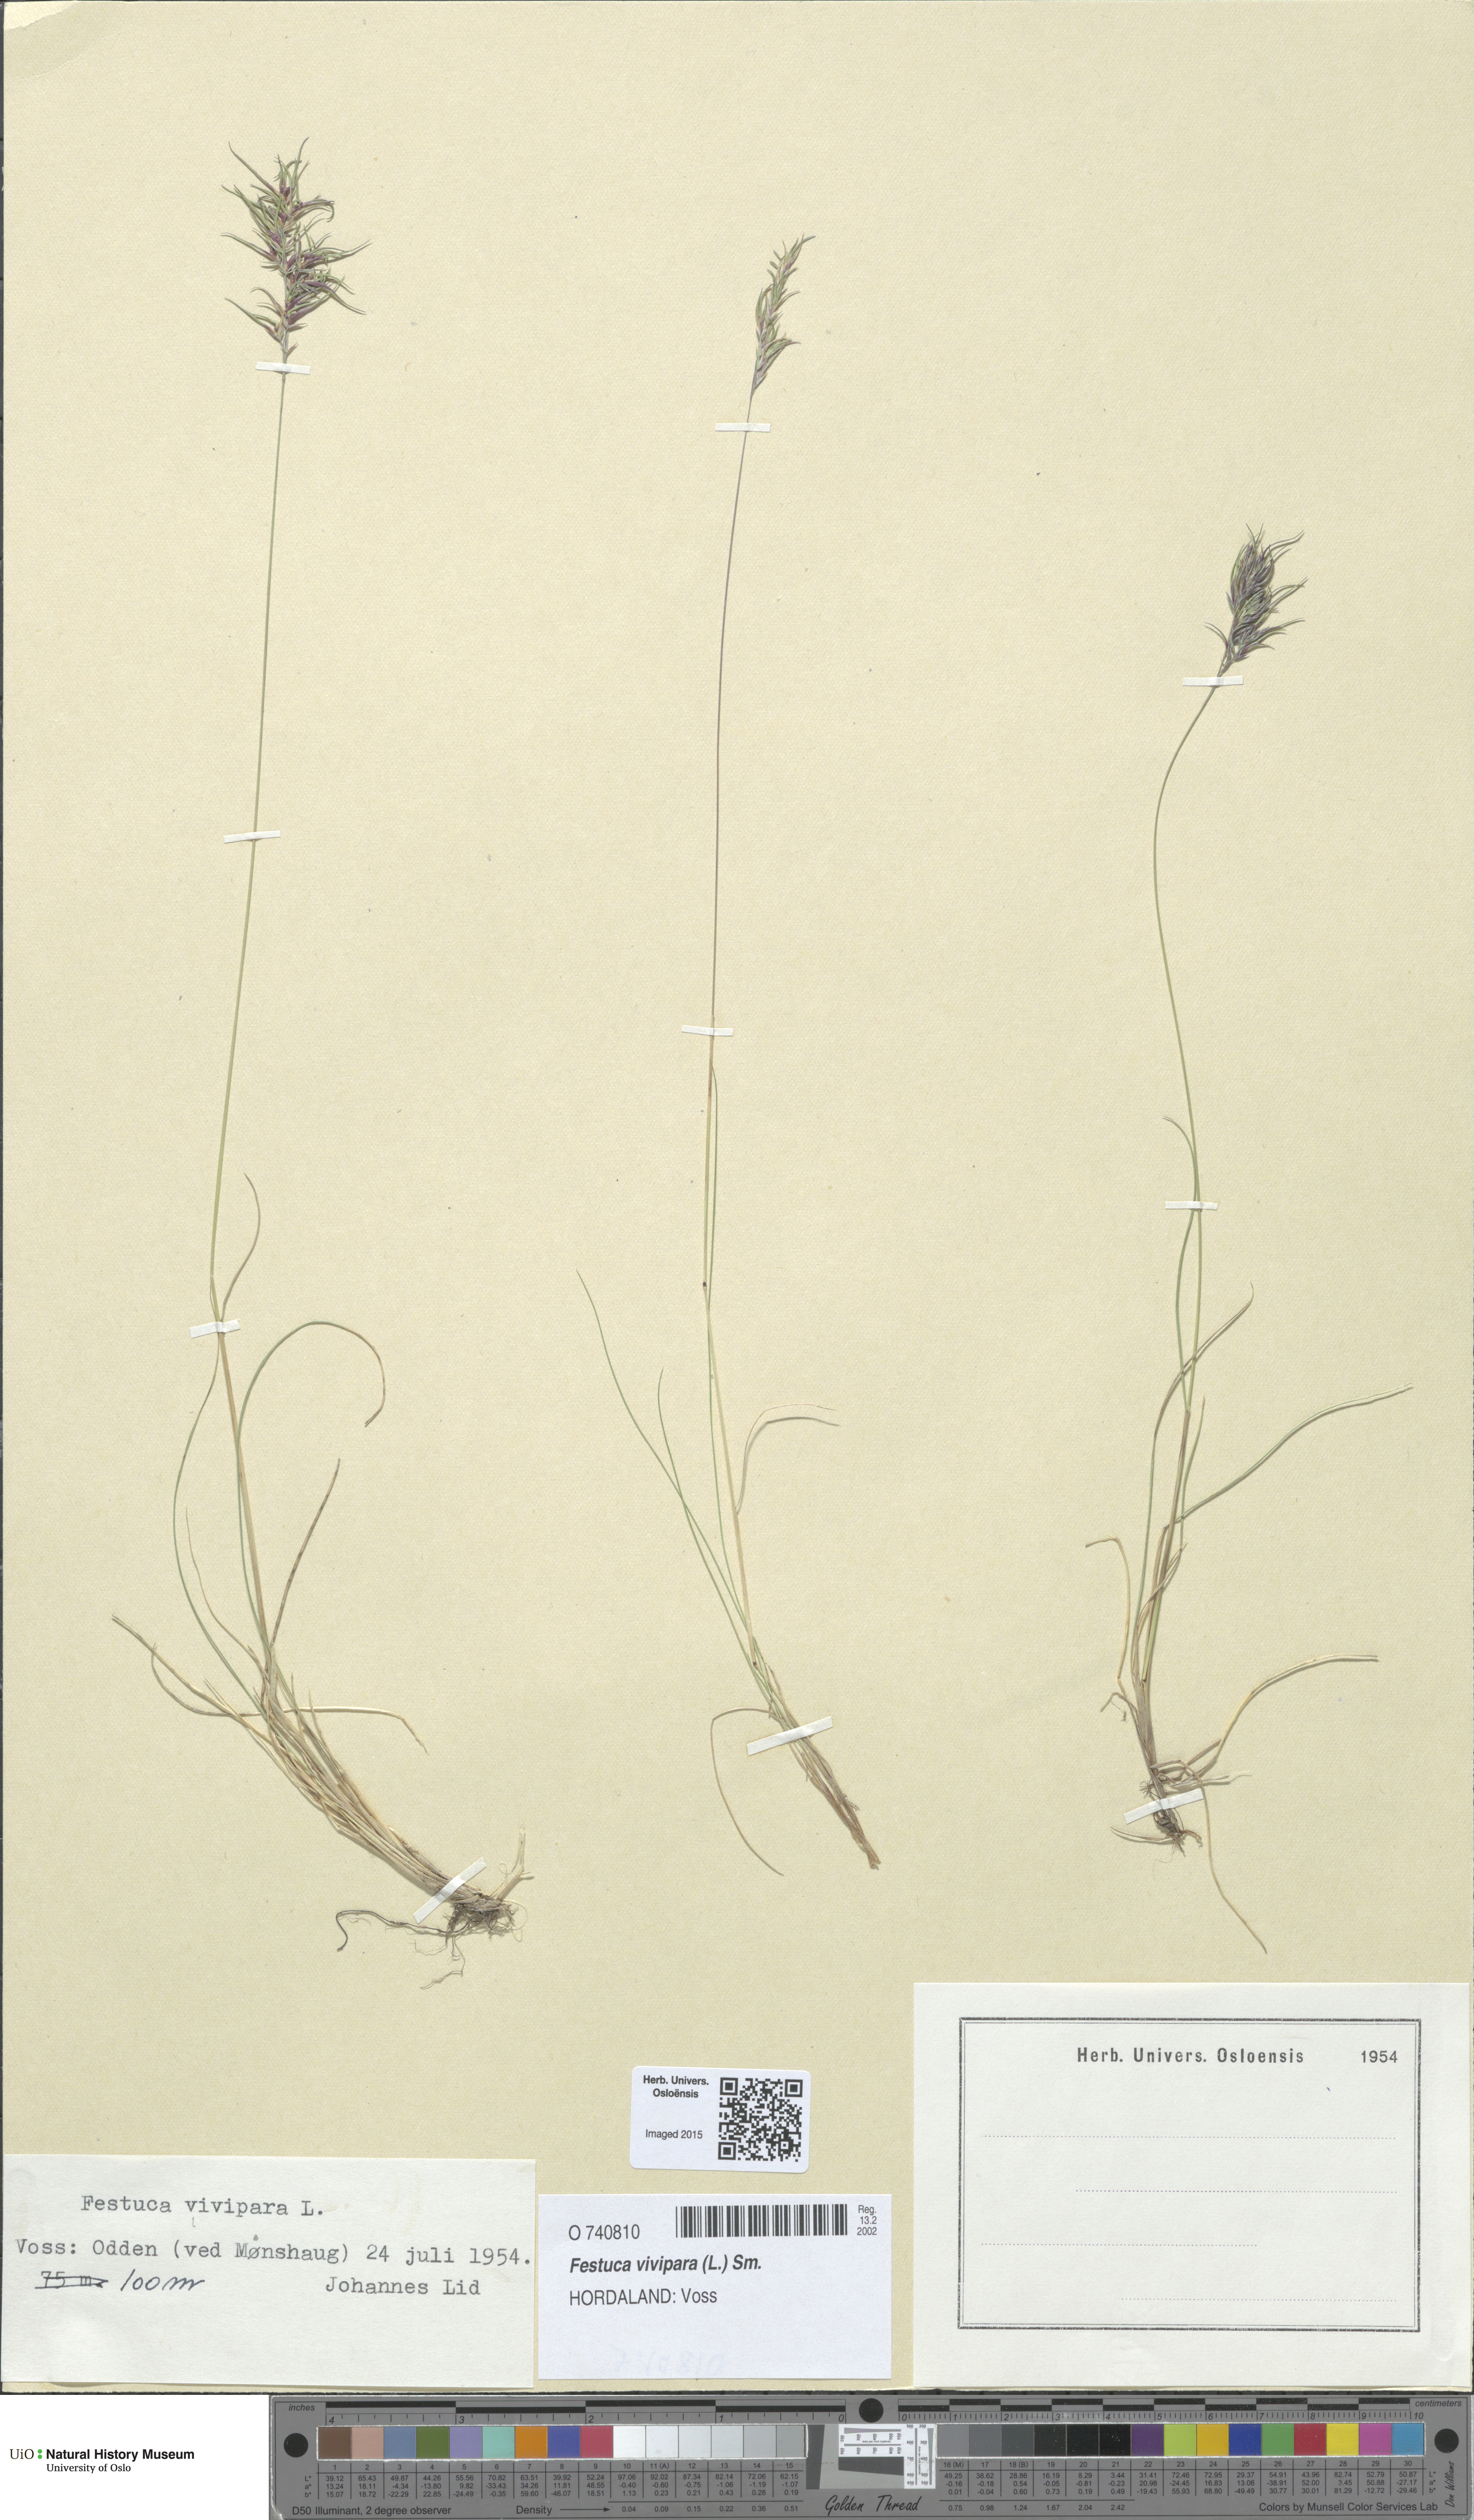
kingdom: Plantae
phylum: Tracheophyta
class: Liliopsida
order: Poales
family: Poaceae
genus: Festuca
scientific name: Festuca vivipara
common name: Viviparous sheep's-fescue
